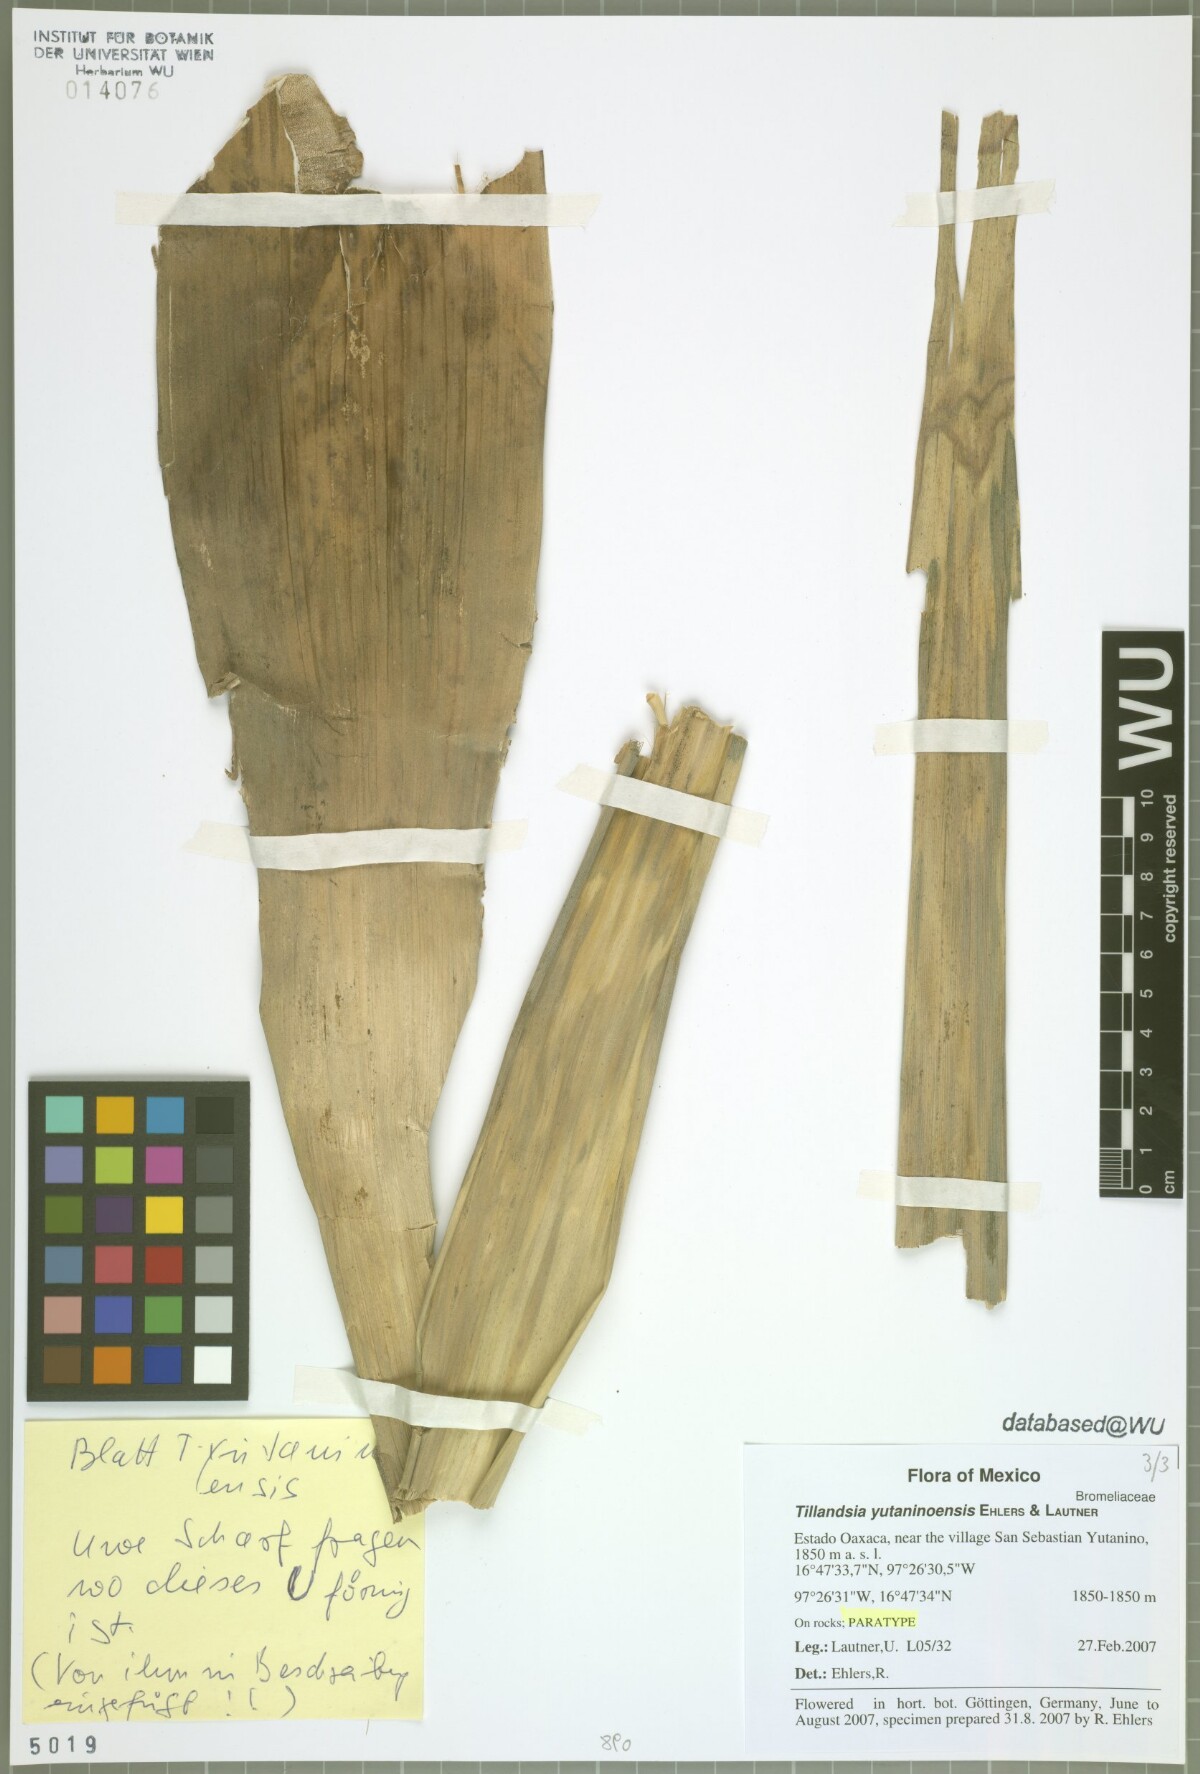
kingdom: Plantae
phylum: Tracheophyta
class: Liliopsida
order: Poales
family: Bromeliaceae
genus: Tillandsia
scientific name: Tillandsia yutaninoensis
